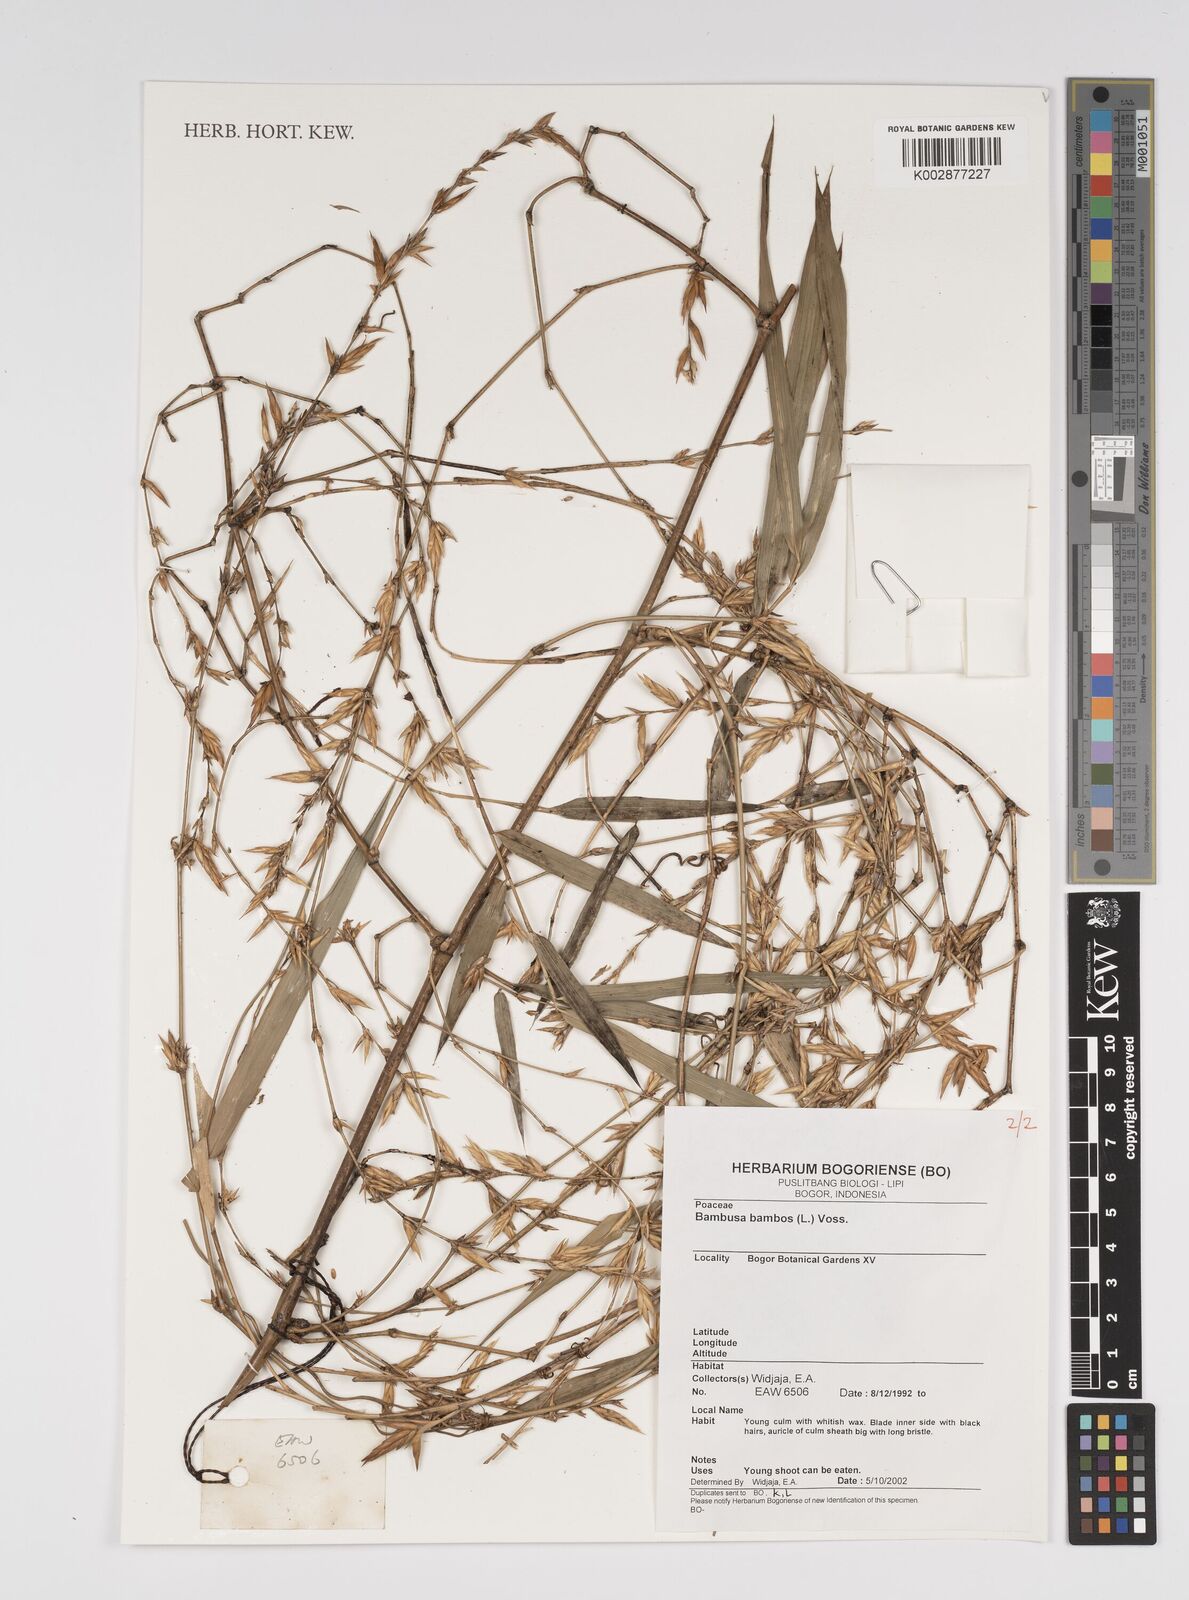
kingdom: Plantae
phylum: Tracheophyta
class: Liliopsida
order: Poales
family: Poaceae
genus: Bambusa
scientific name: Bambusa bambos
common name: Indian thorny bamboo
